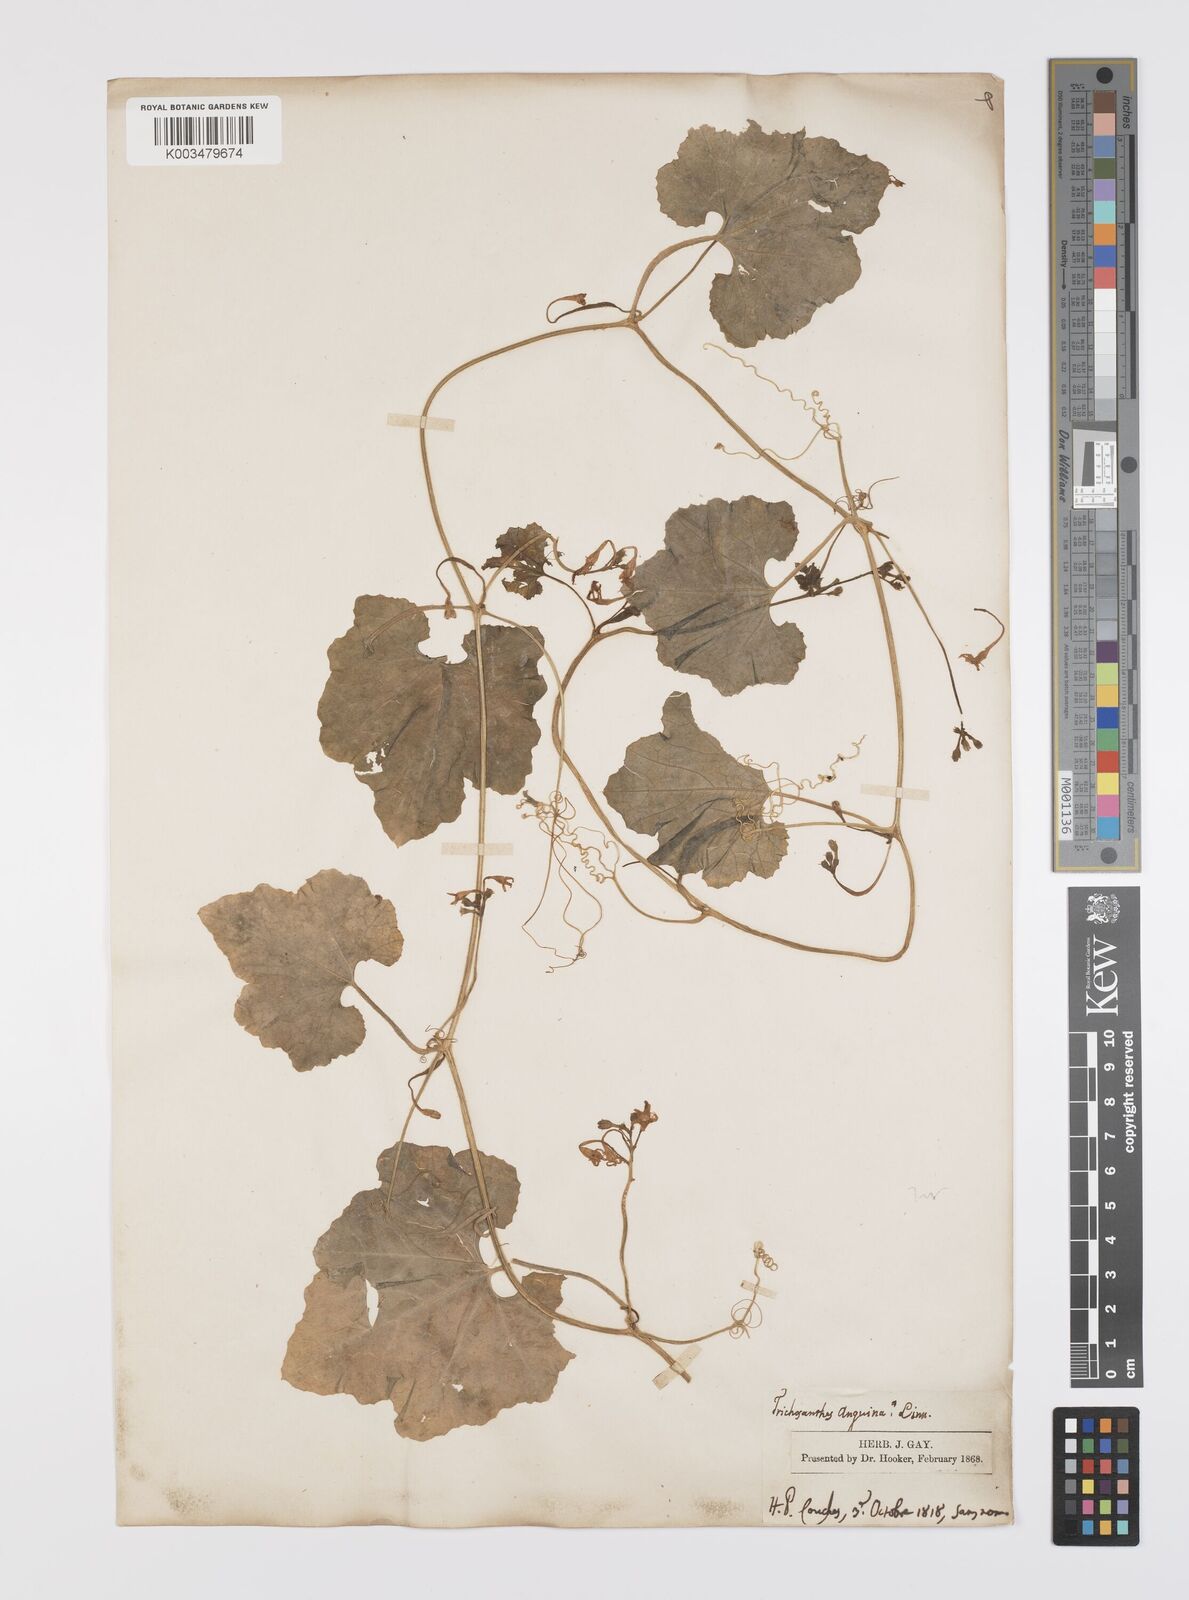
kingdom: Plantae
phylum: Tracheophyta
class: Magnoliopsida
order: Cucurbitales
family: Cucurbitaceae
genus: Trichosanthes
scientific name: Trichosanthes cucumerina
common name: Snakegourd
